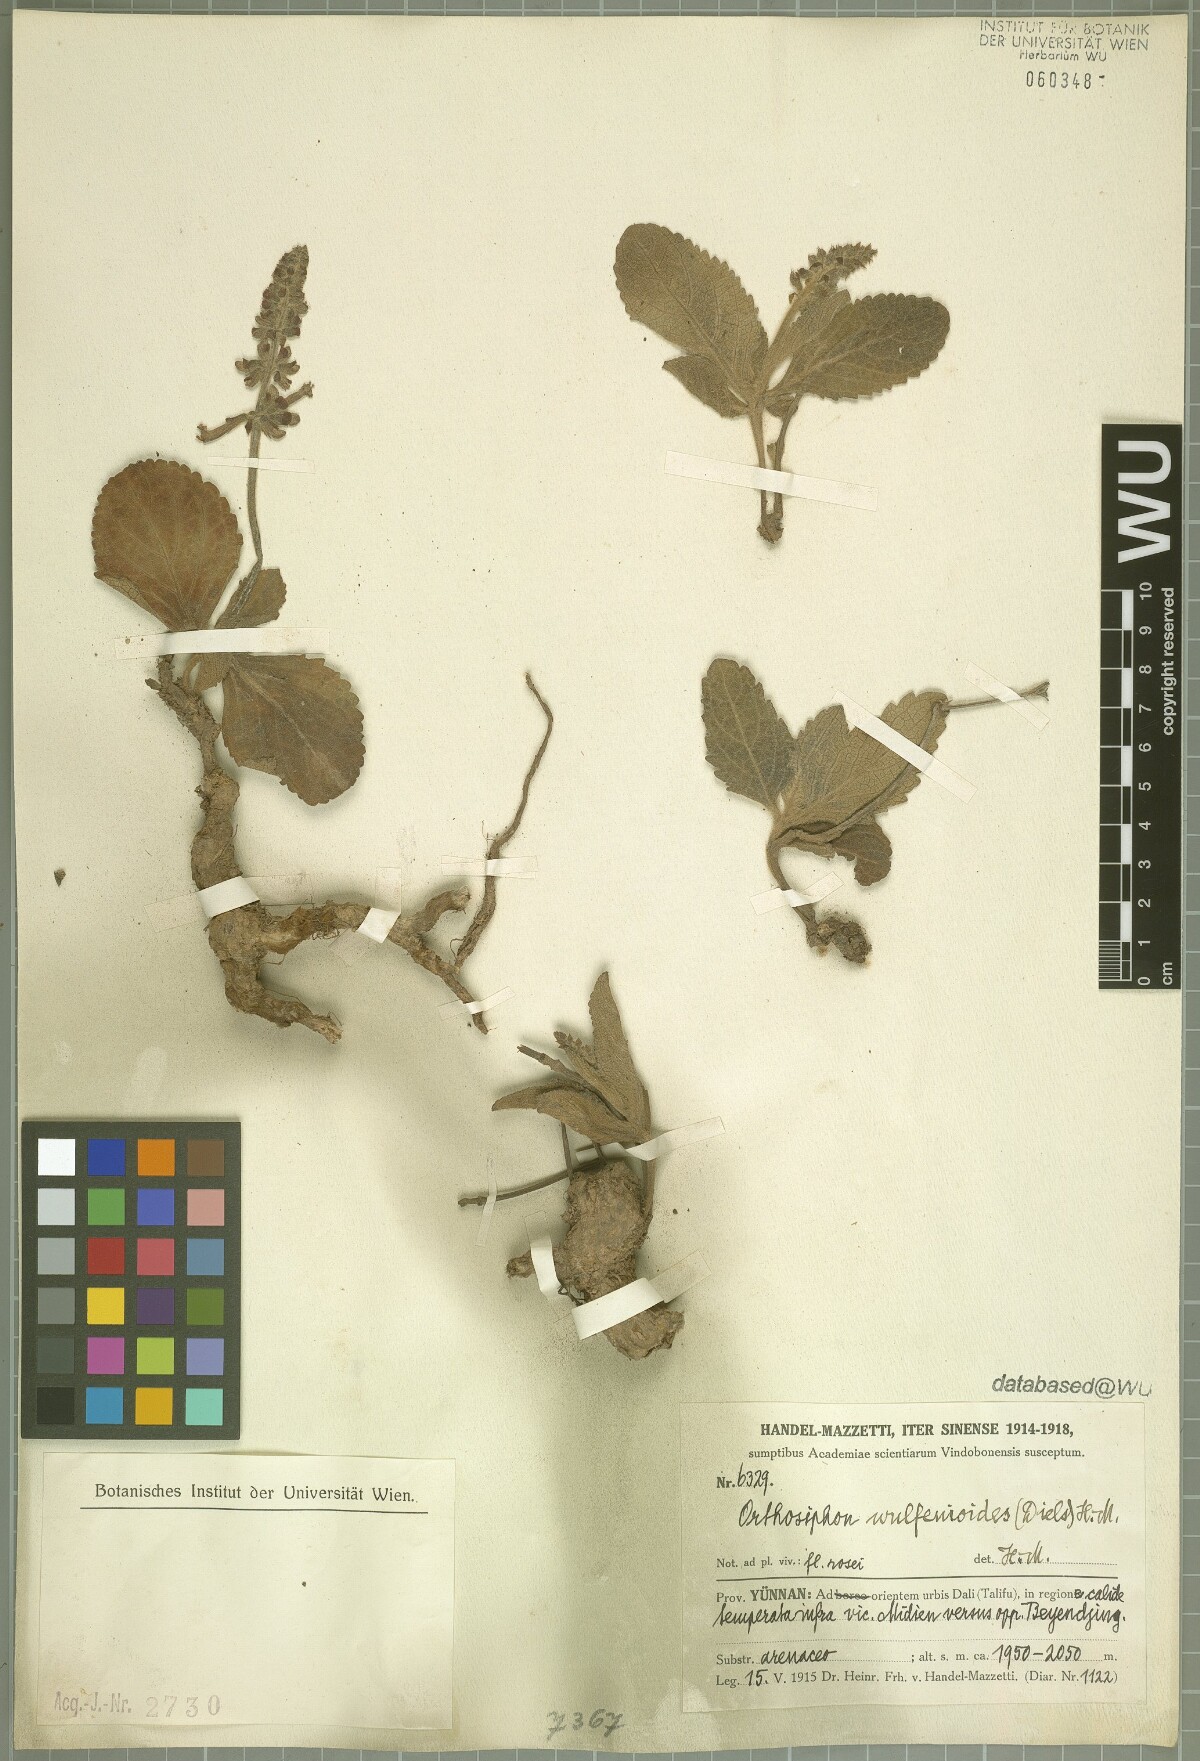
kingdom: Plantae
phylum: Tracheophyta
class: Magnoliopsida
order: Lamiales
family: Lamiaceae
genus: Orthosiphon
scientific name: Orthosiphon wulfenioides
